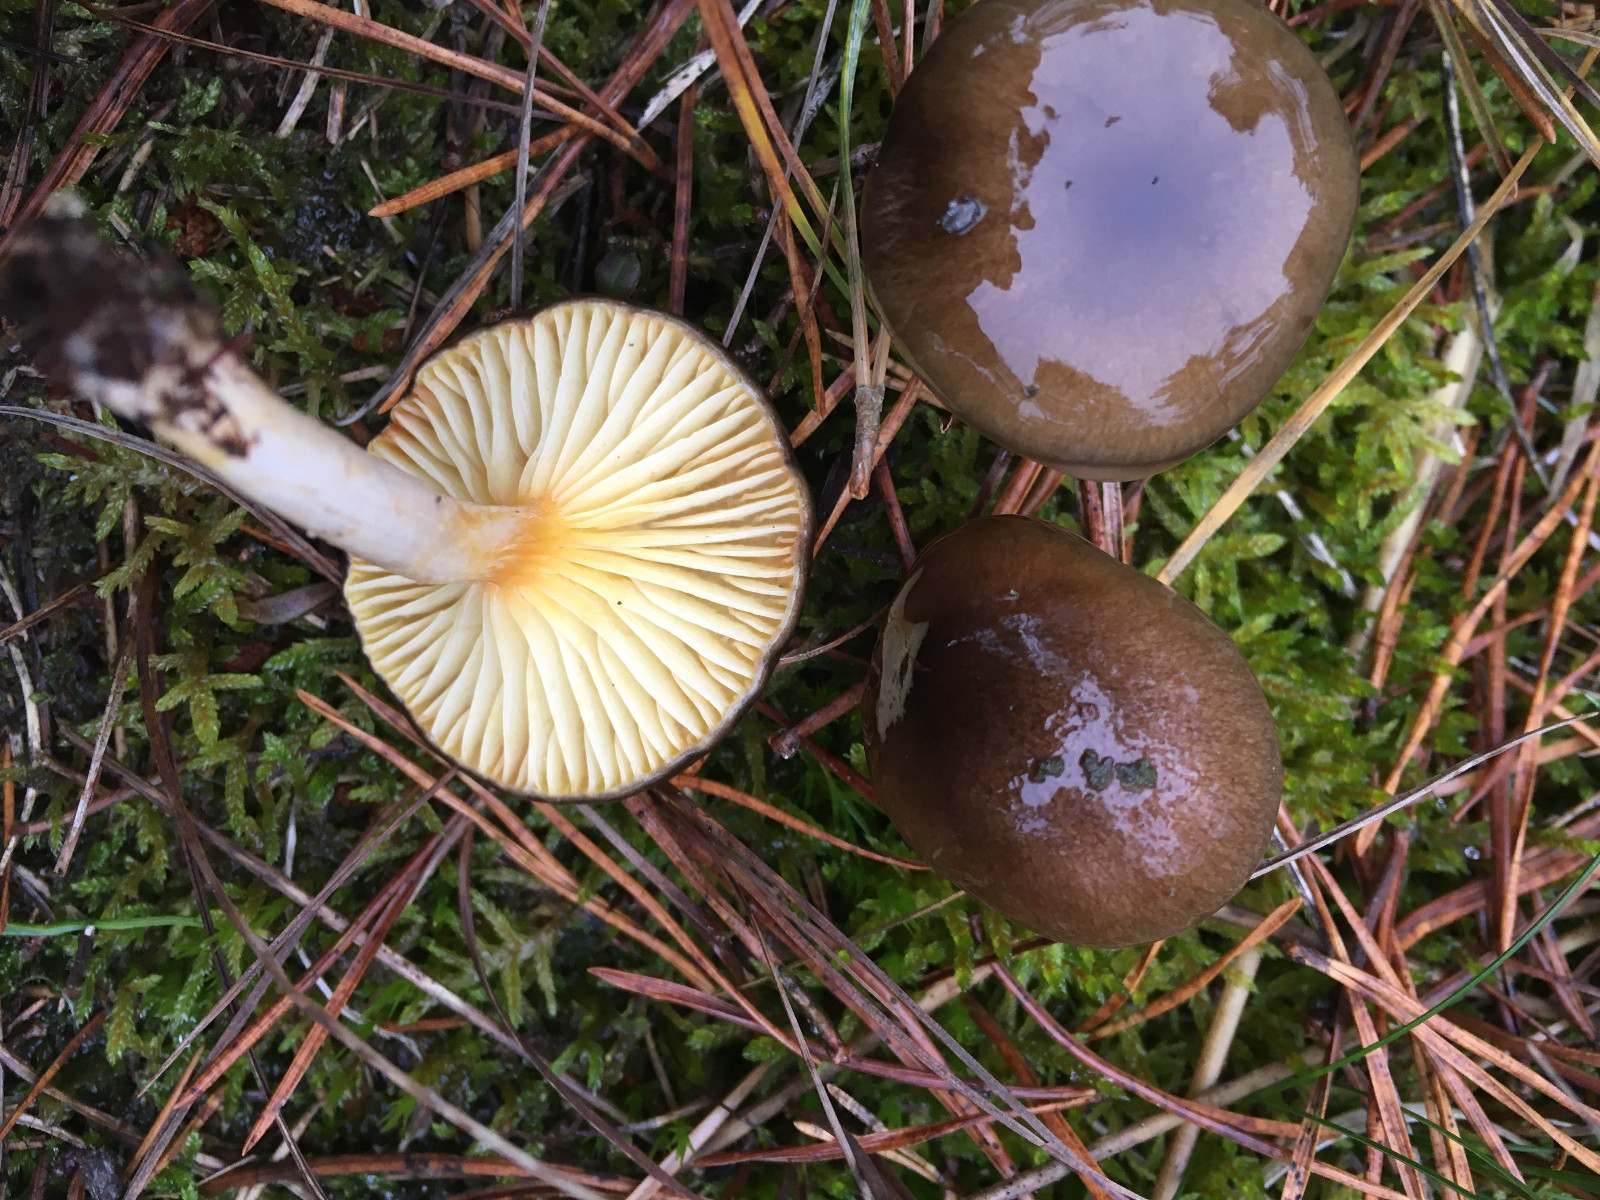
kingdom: Fungi
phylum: Basidiomycota
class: Agaricomycetes
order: Agaricales
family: Hygrophoraceae
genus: Hygrophorus
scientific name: Hygrophorus hypothejus
